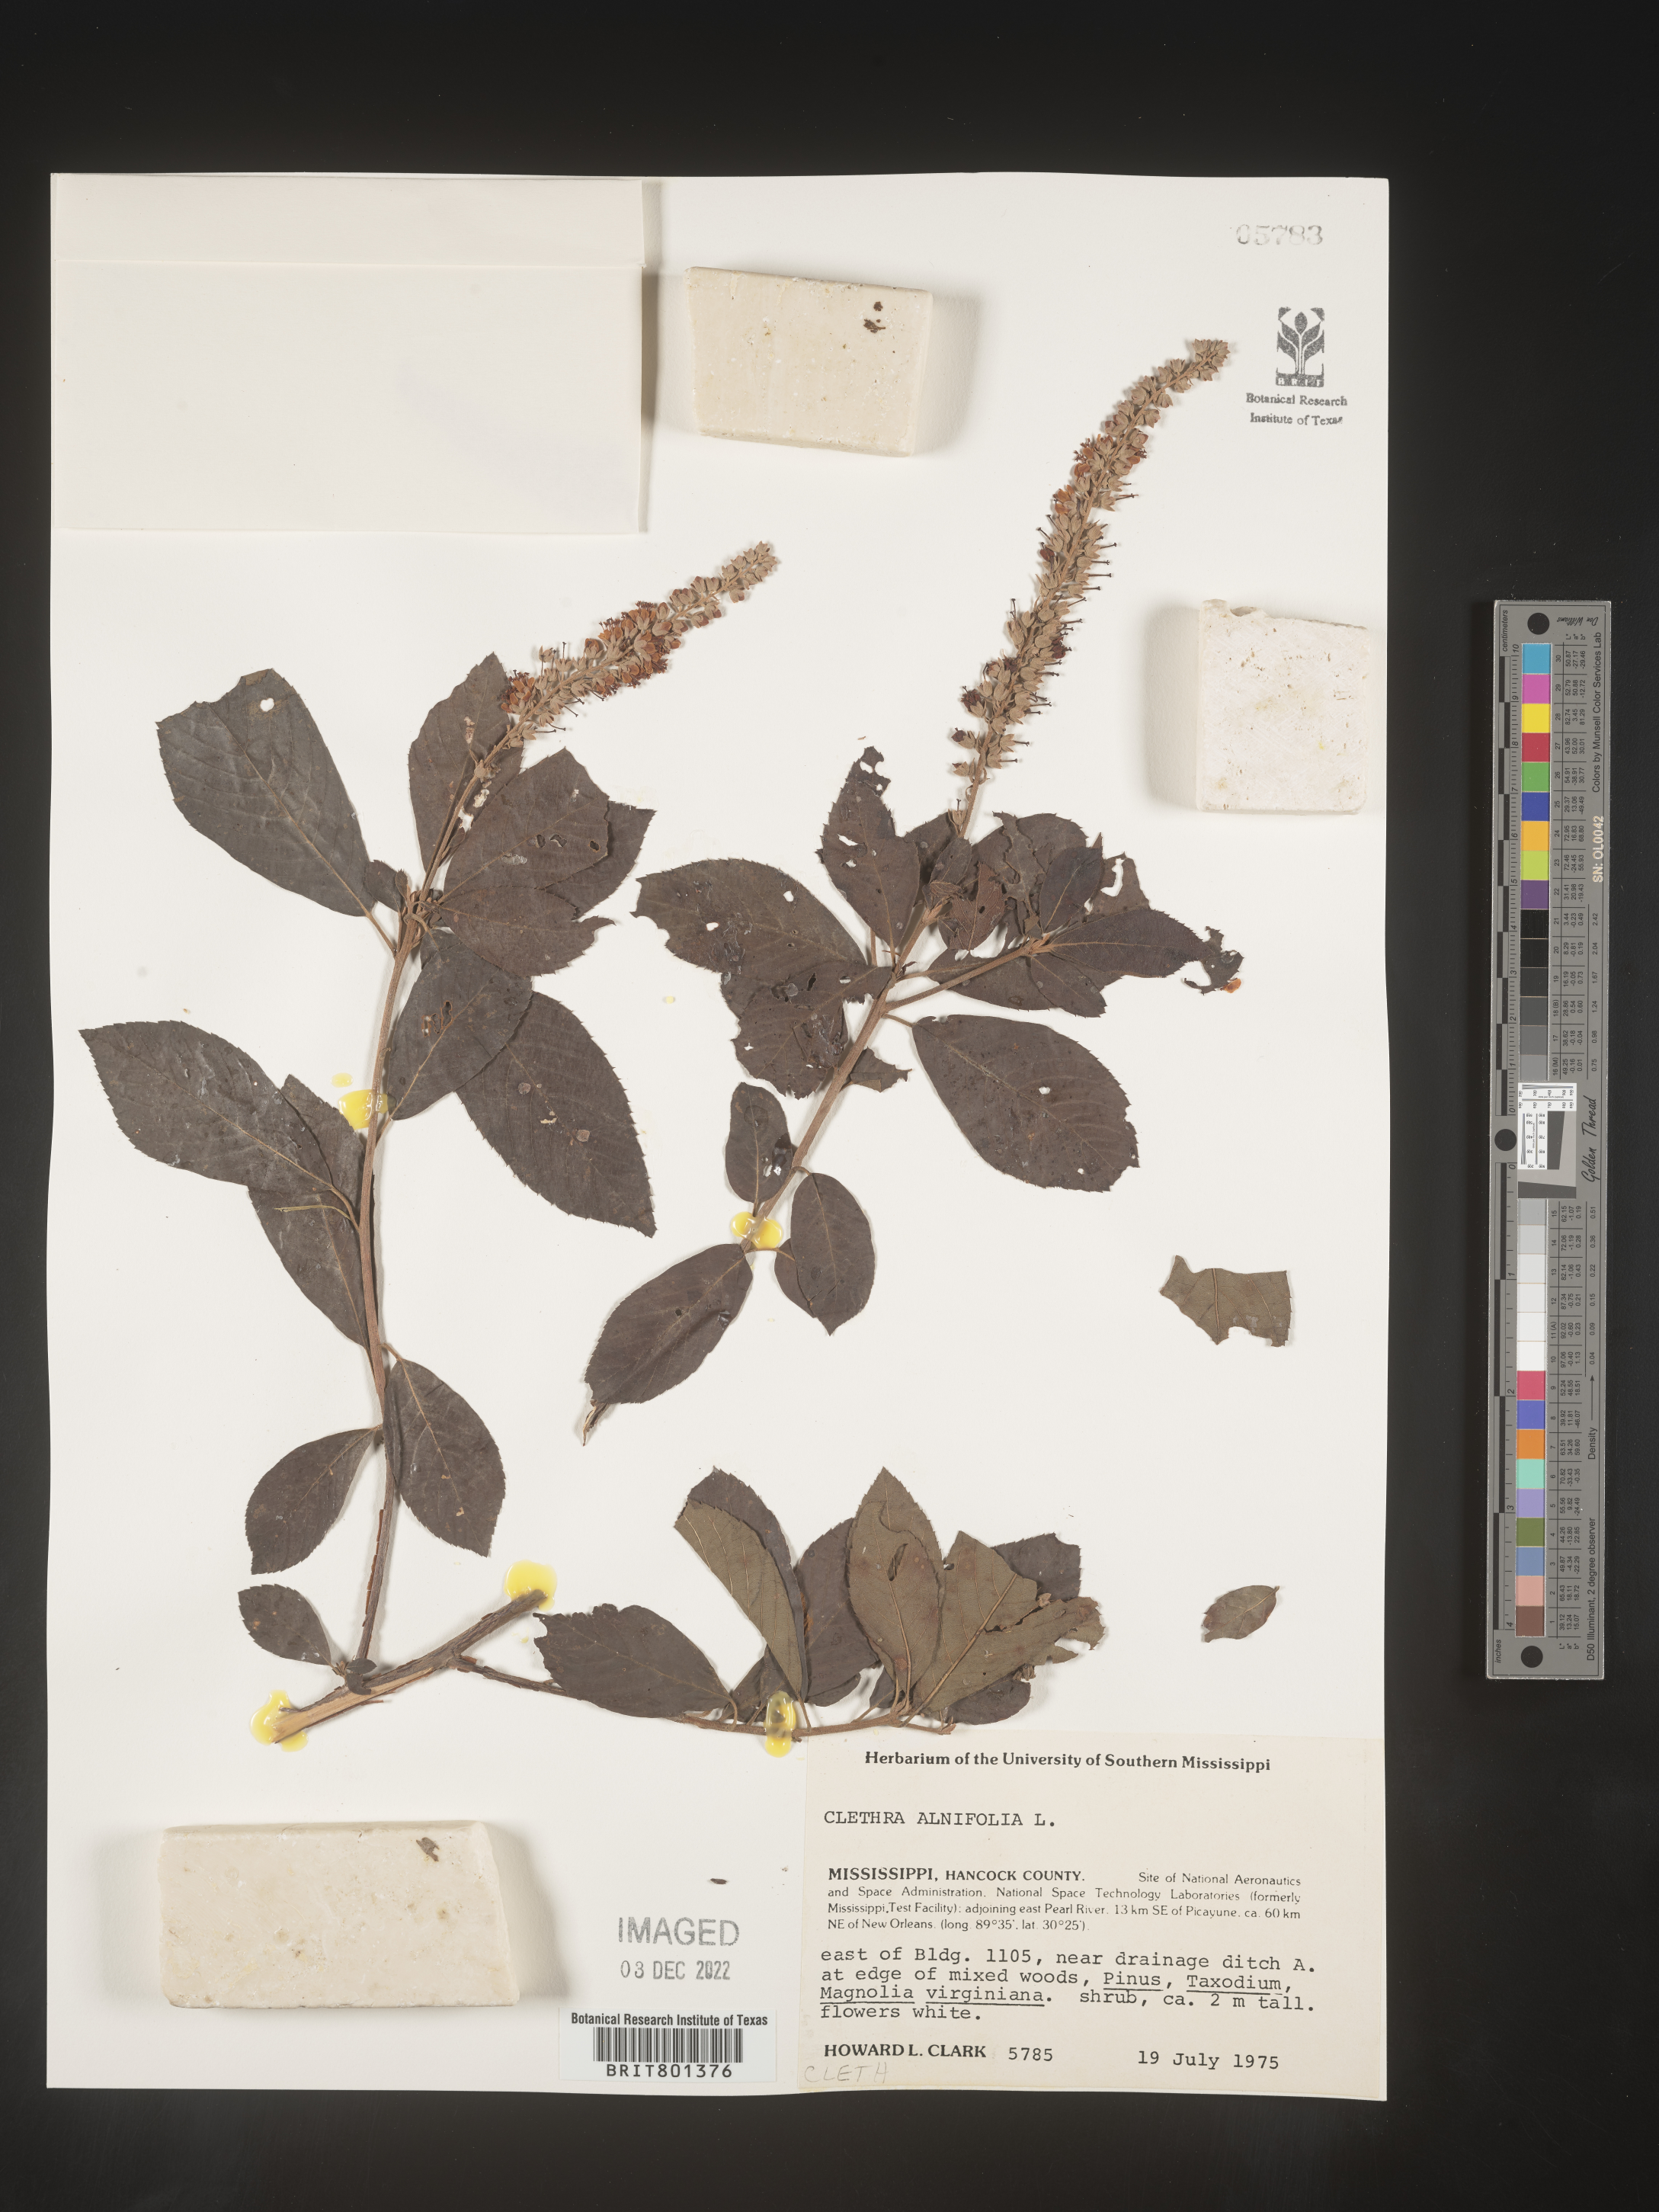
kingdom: Plantae
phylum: Tracheophyta
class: Magnoliopsida
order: Ericales
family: Clethraceae
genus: Clethra
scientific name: Clethra alnifolia
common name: Sweet pepperbush
